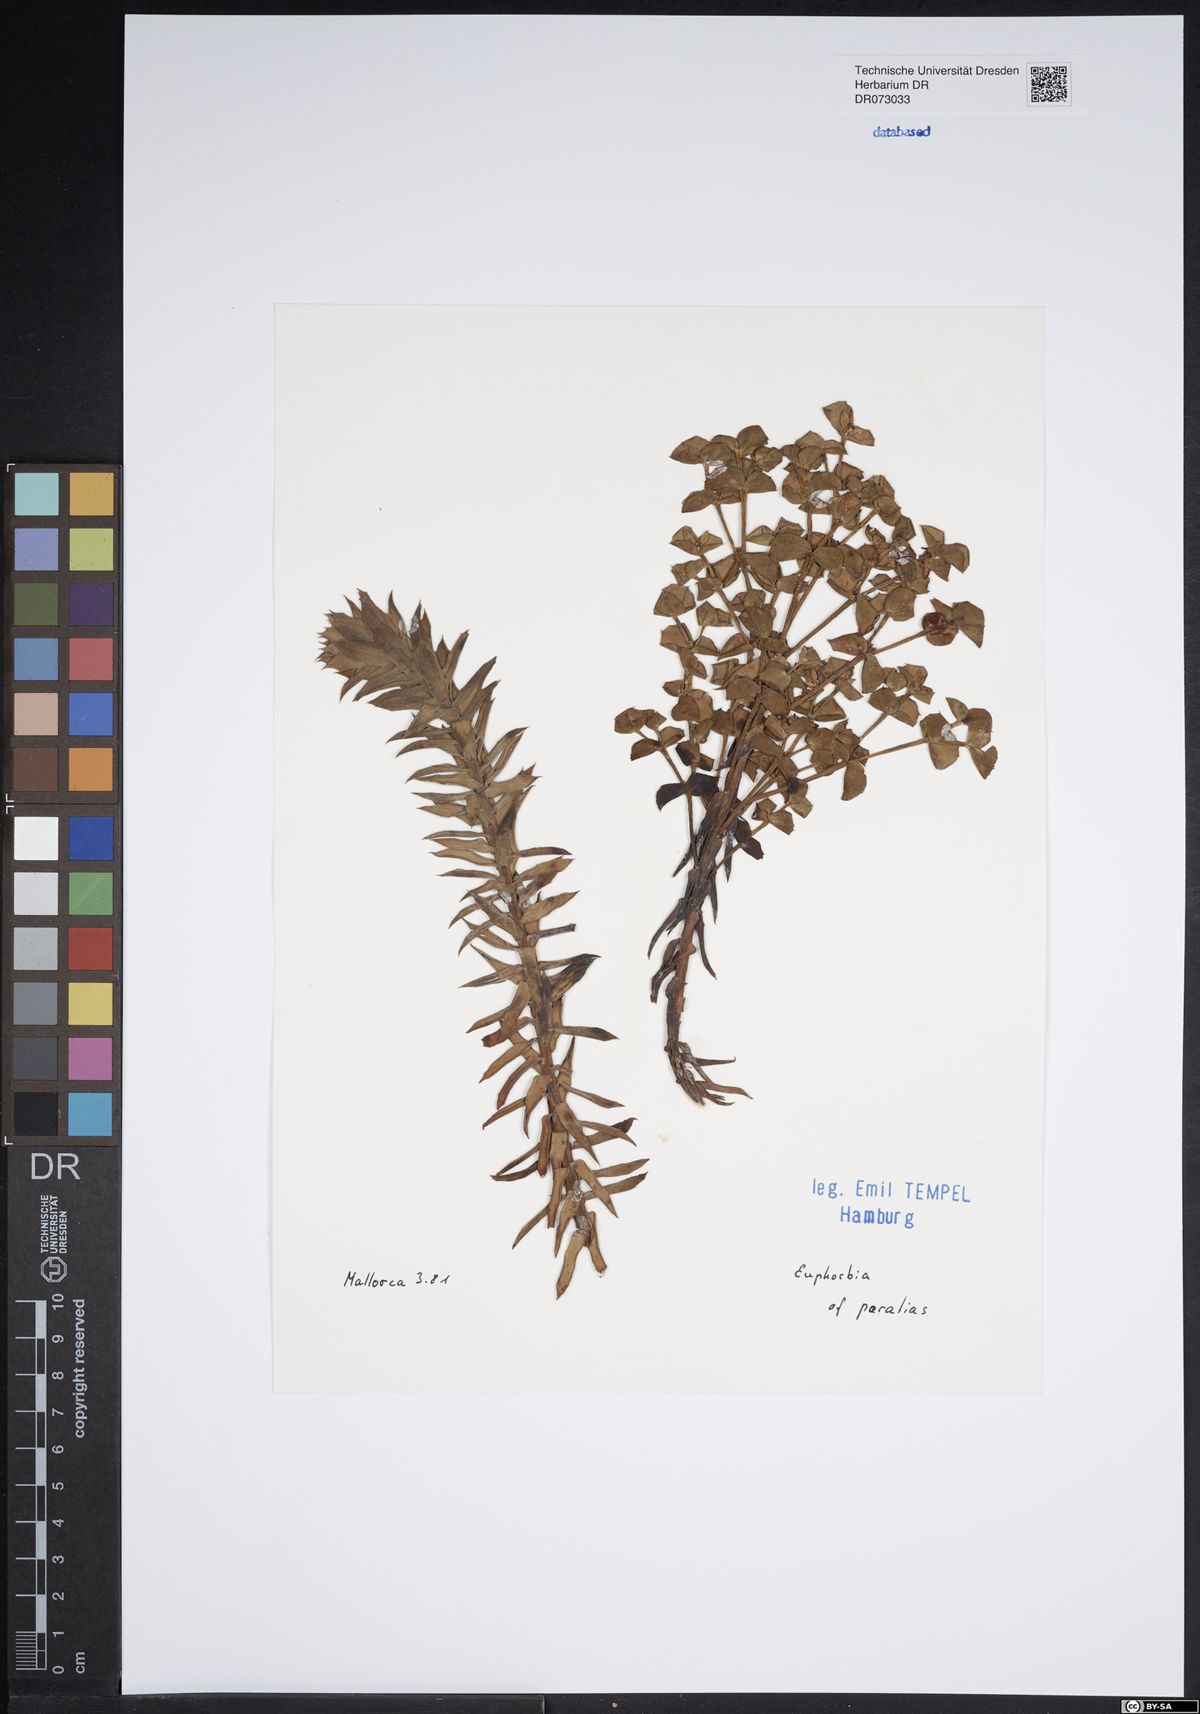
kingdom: Plantae
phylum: Tracheophyta
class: Magnoliopsida
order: Malpighiales
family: Euphorbiaceae
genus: Euphorbia
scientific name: Euphorbia pithyusa
